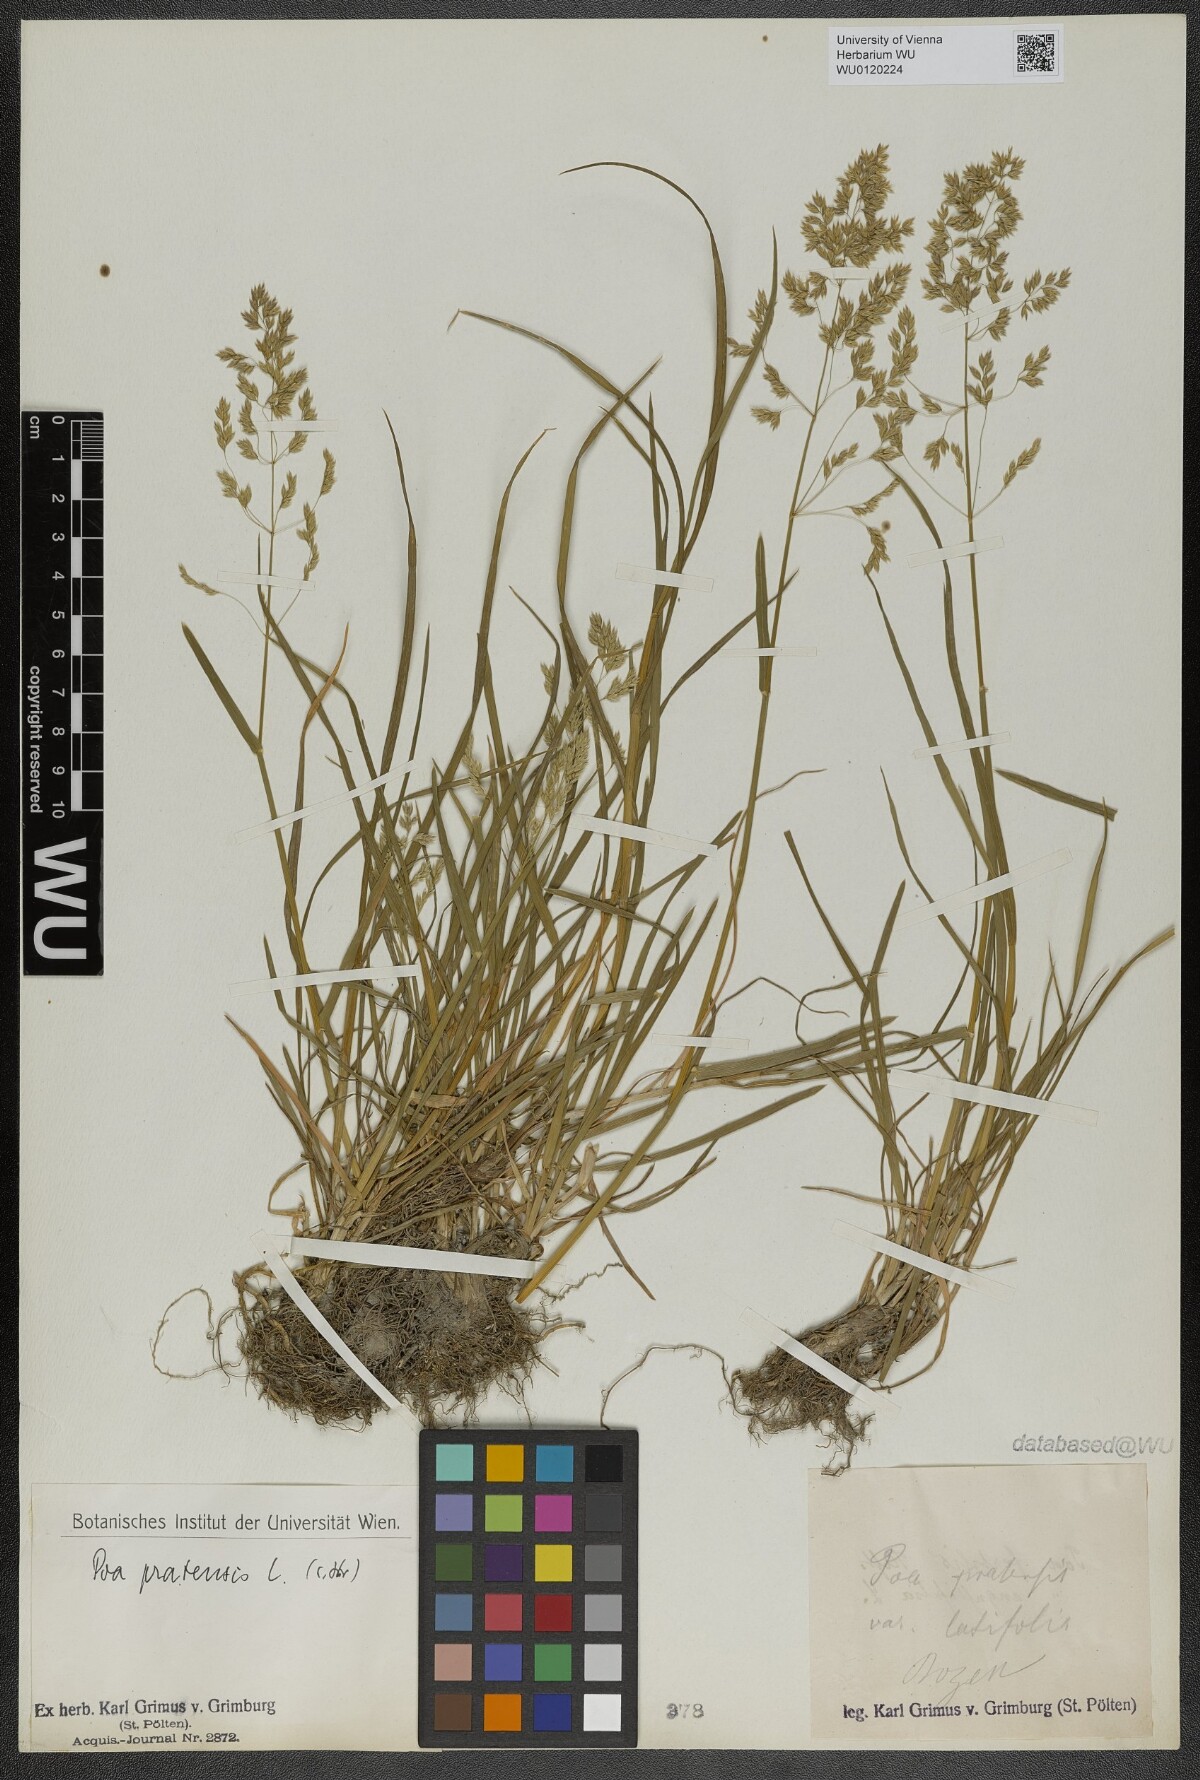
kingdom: Plantae
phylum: Tracheophyta
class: Liliopsida
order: Poales
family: Poaceae
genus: Poa
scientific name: Poa pratensis
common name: Kentucky bluegrass
